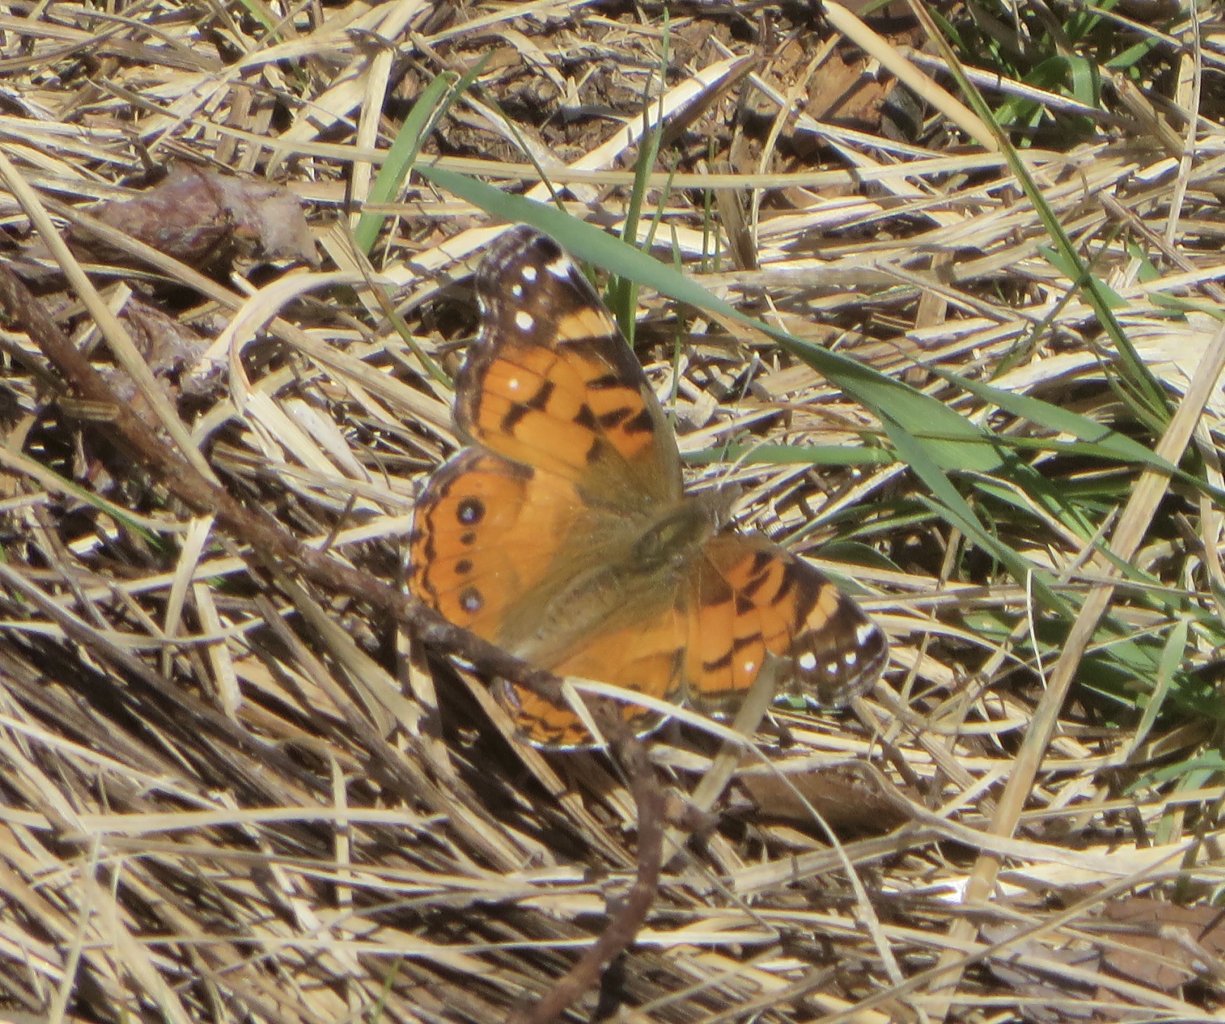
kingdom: Animalia
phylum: Arthropoda
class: Insecta
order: Lepidoptera
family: Nymphalidae
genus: Vanessa
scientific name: Vanessa virginiensis
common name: American Lady
